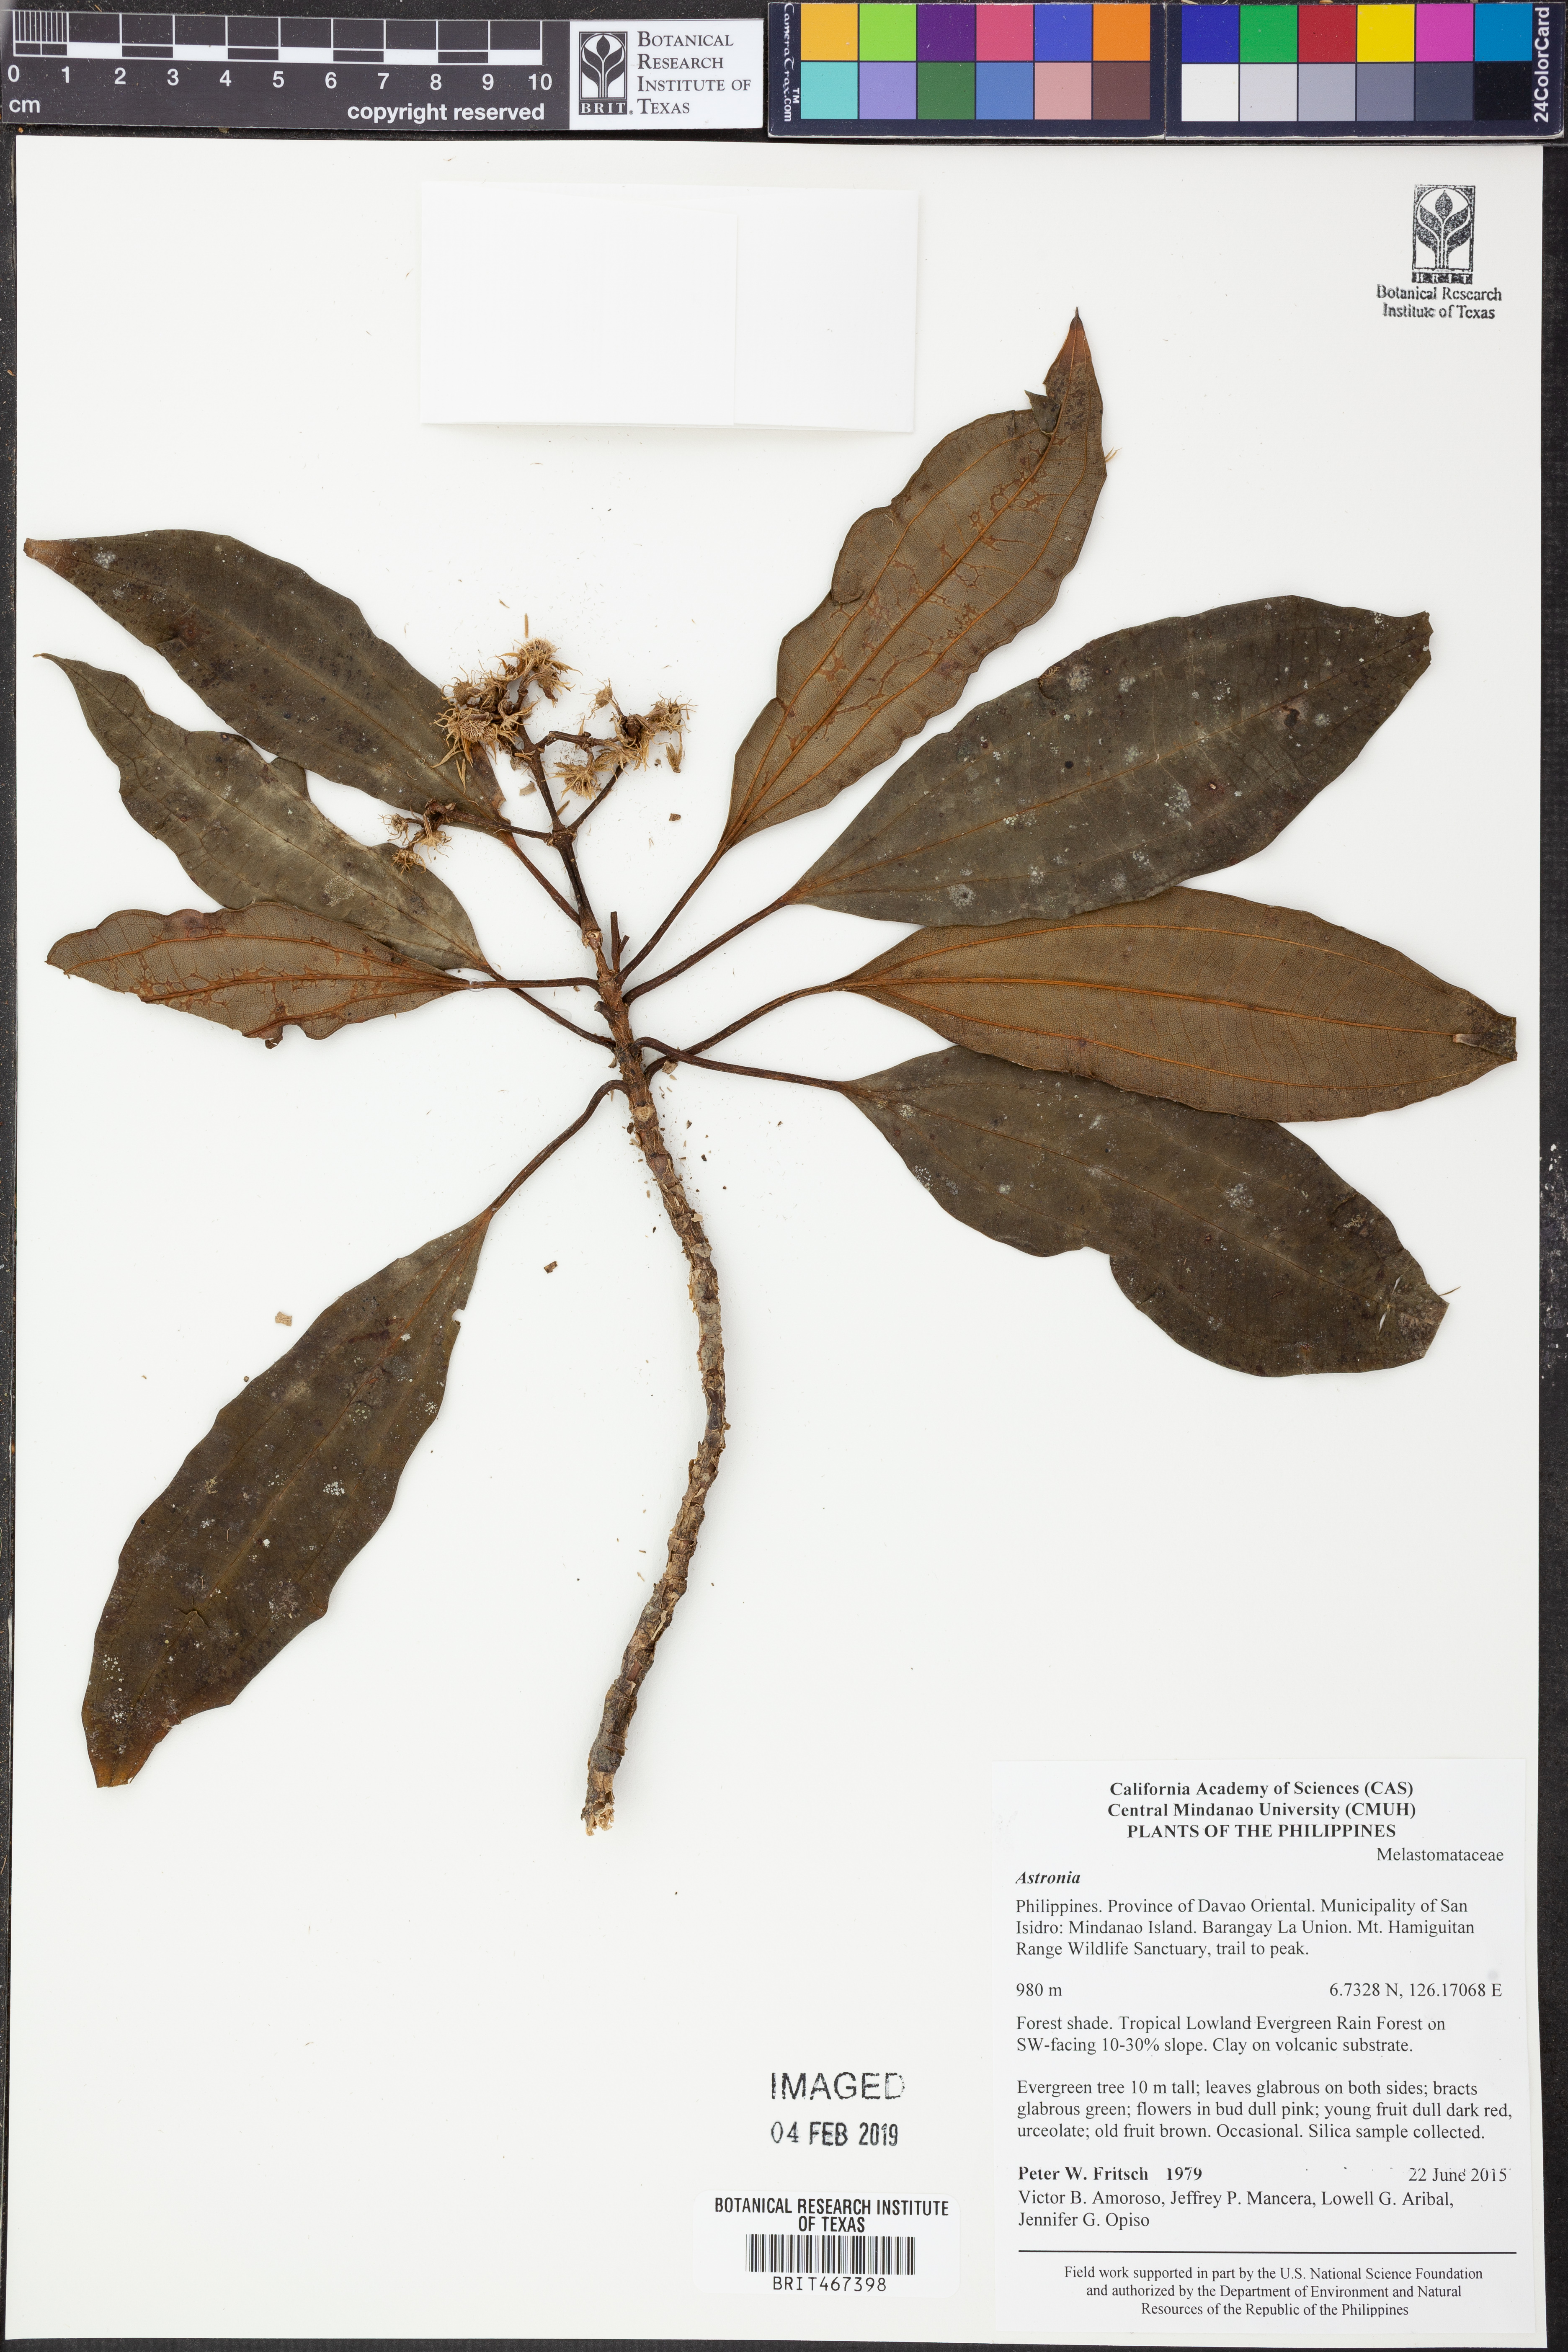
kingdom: Plantae
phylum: Tracheophyta
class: Magnoliopsida
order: Myrtales
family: Melastomataceae
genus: Astronia
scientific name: Astronia
